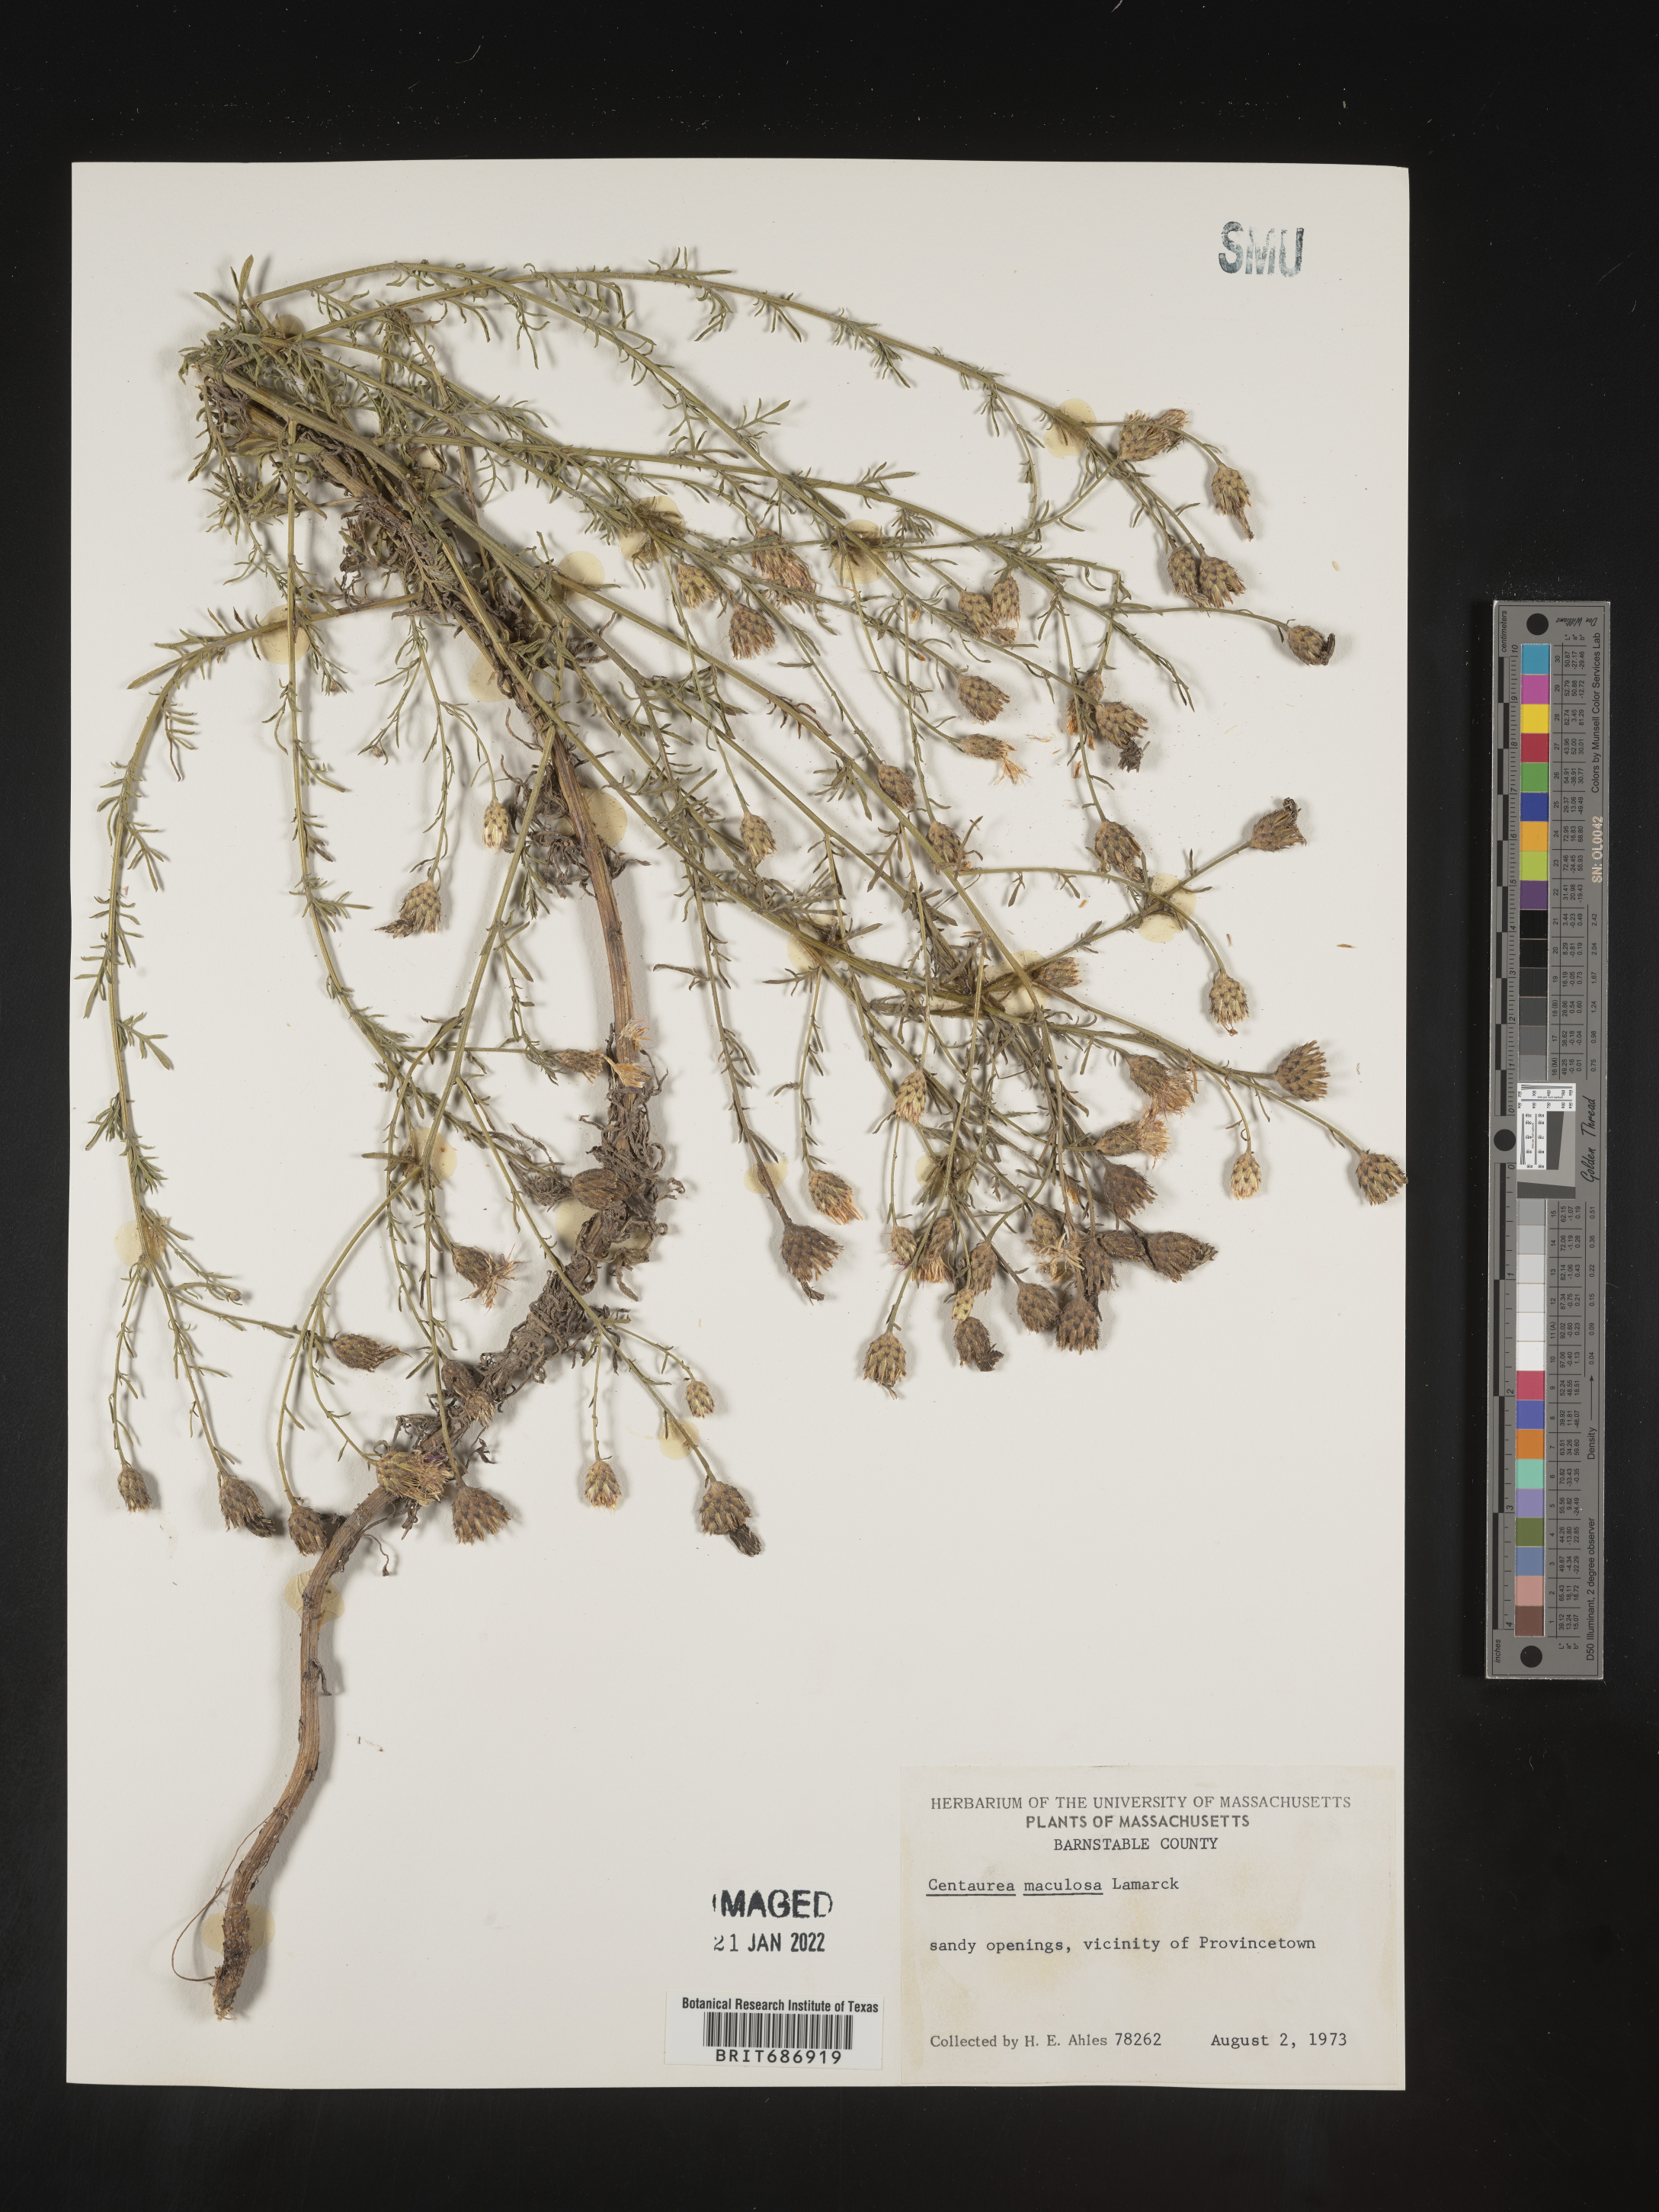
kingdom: Plantae
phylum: Tracheophyta
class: Magnoliopsida
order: Asterales
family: Asteraceae
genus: Centaurea
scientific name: Centaurea
